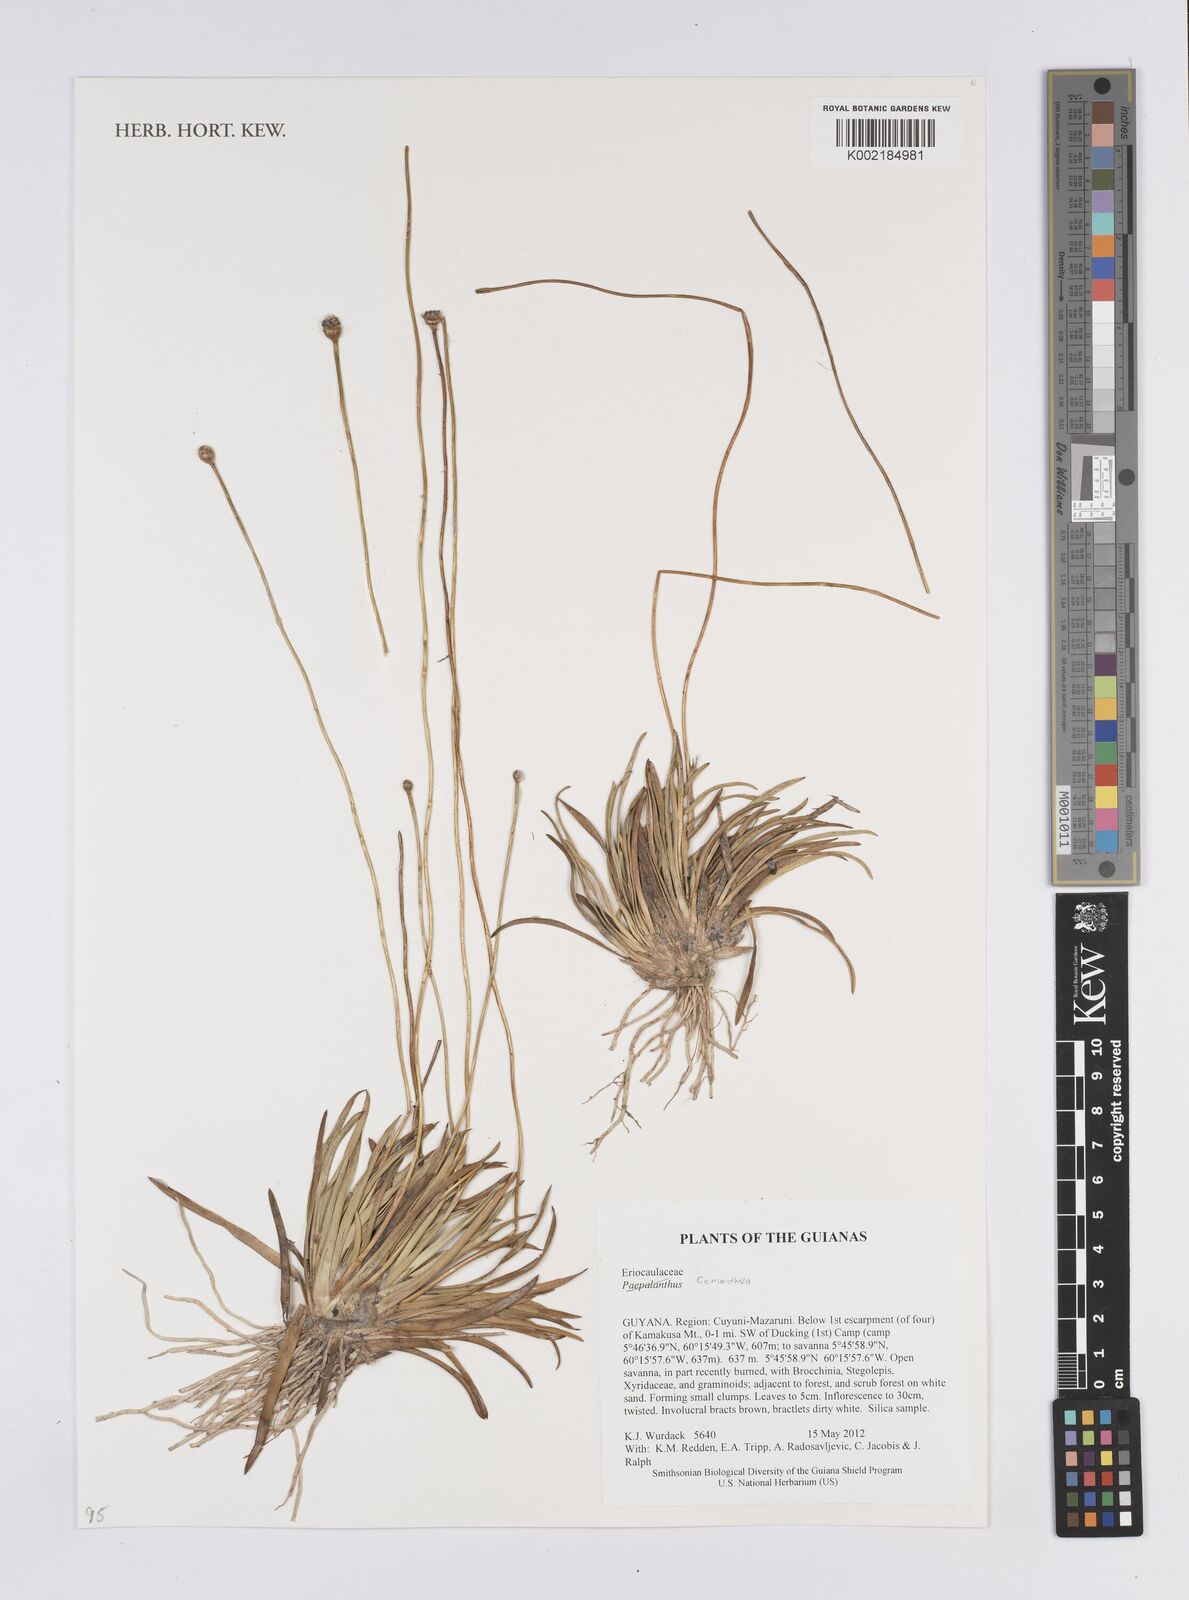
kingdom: Plantae
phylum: Tracheophyta
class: Liliopsida
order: Poales
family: Eriocaulaceae
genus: Comanthera
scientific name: Comanthera
